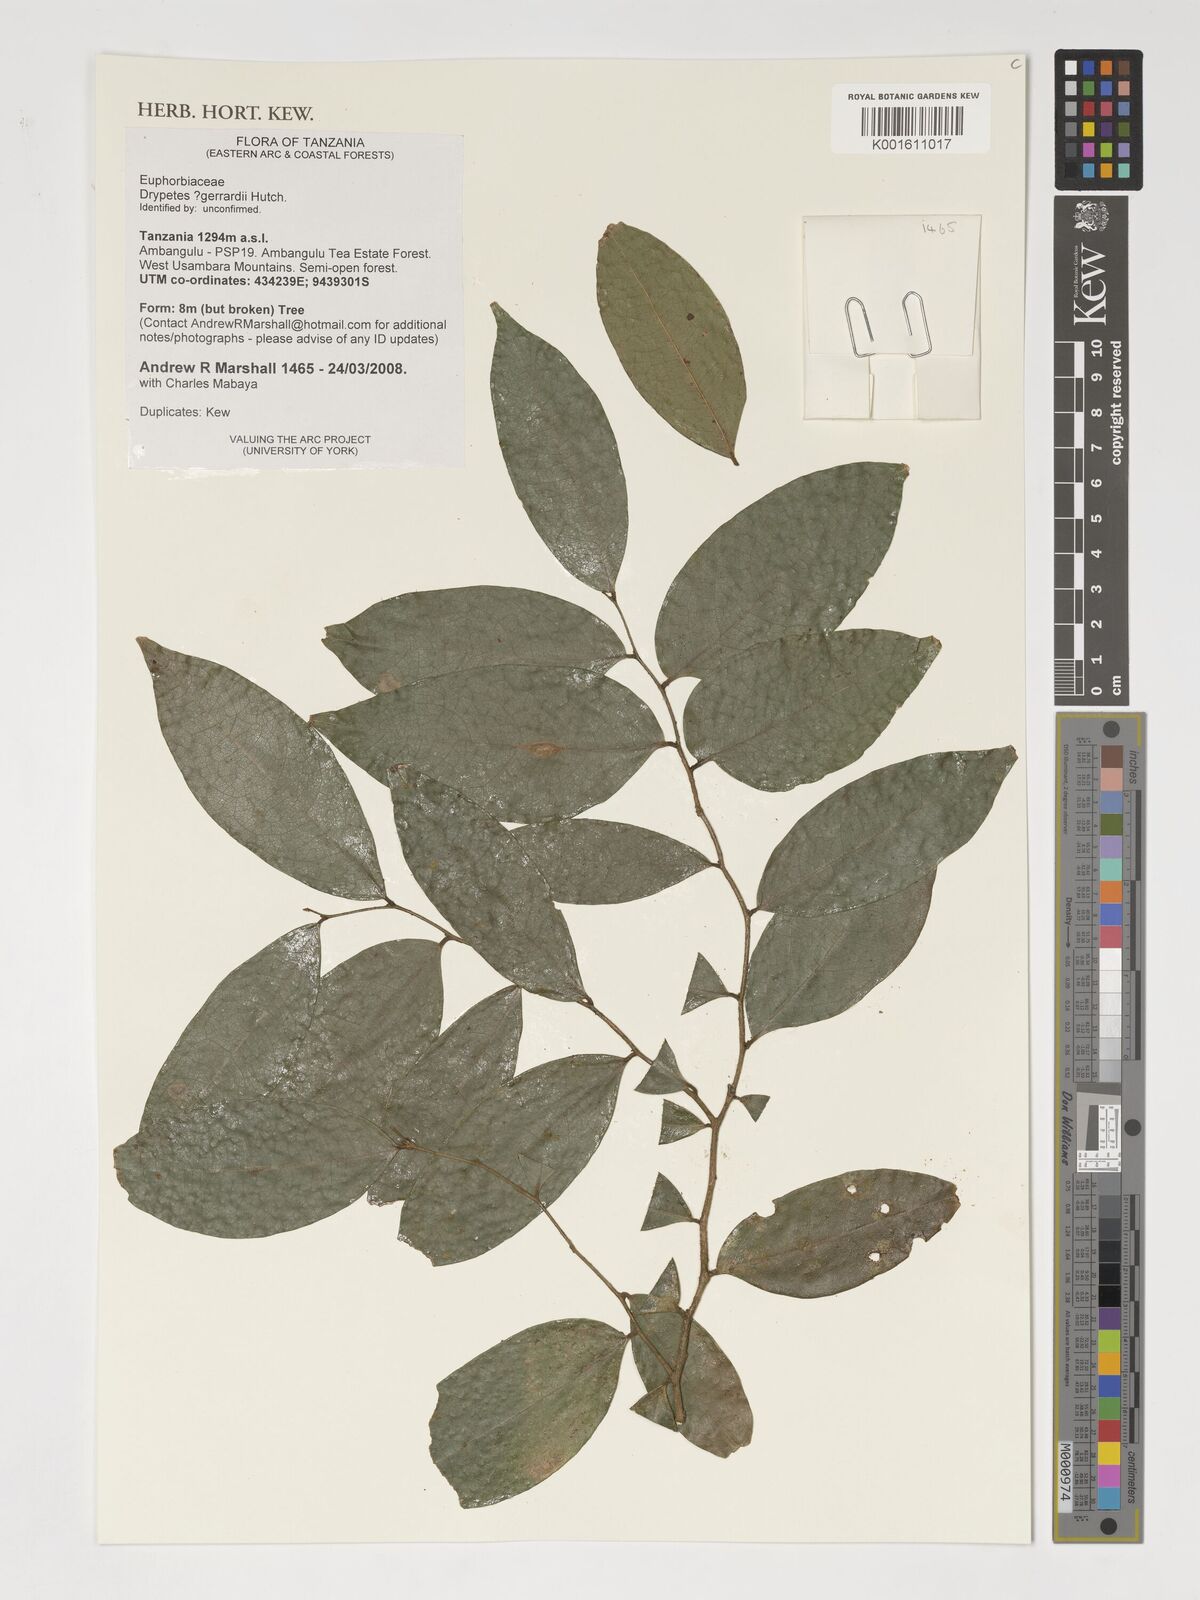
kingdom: Plantae
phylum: Tracheophyta
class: Magnoliopsida
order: Malpighiales
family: Putranjivaceae
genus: Drypetes
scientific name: Drypetes gerrardii
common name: Forest ironplum
